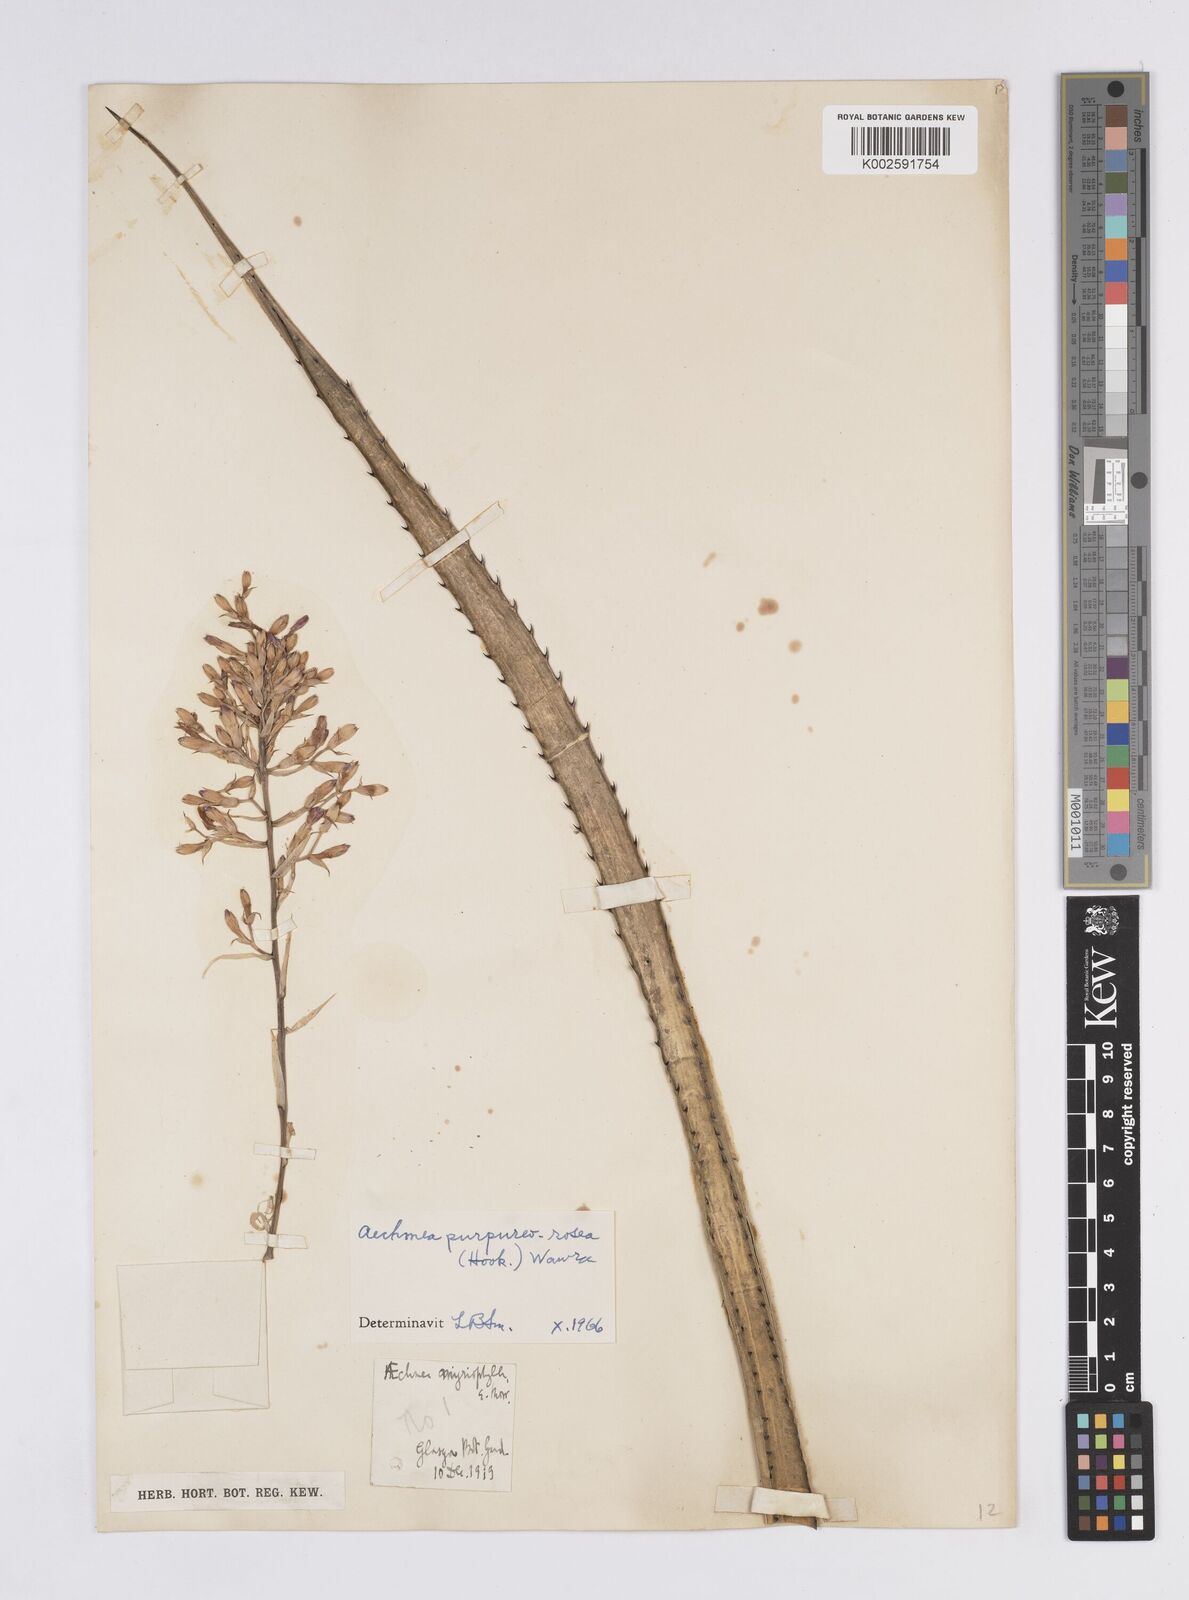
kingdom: Plantae
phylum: Tracheophyta
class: Liliopsida
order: Poales
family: Bromeliaceae
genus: Aechmea
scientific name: Aechmea purpureorosea
